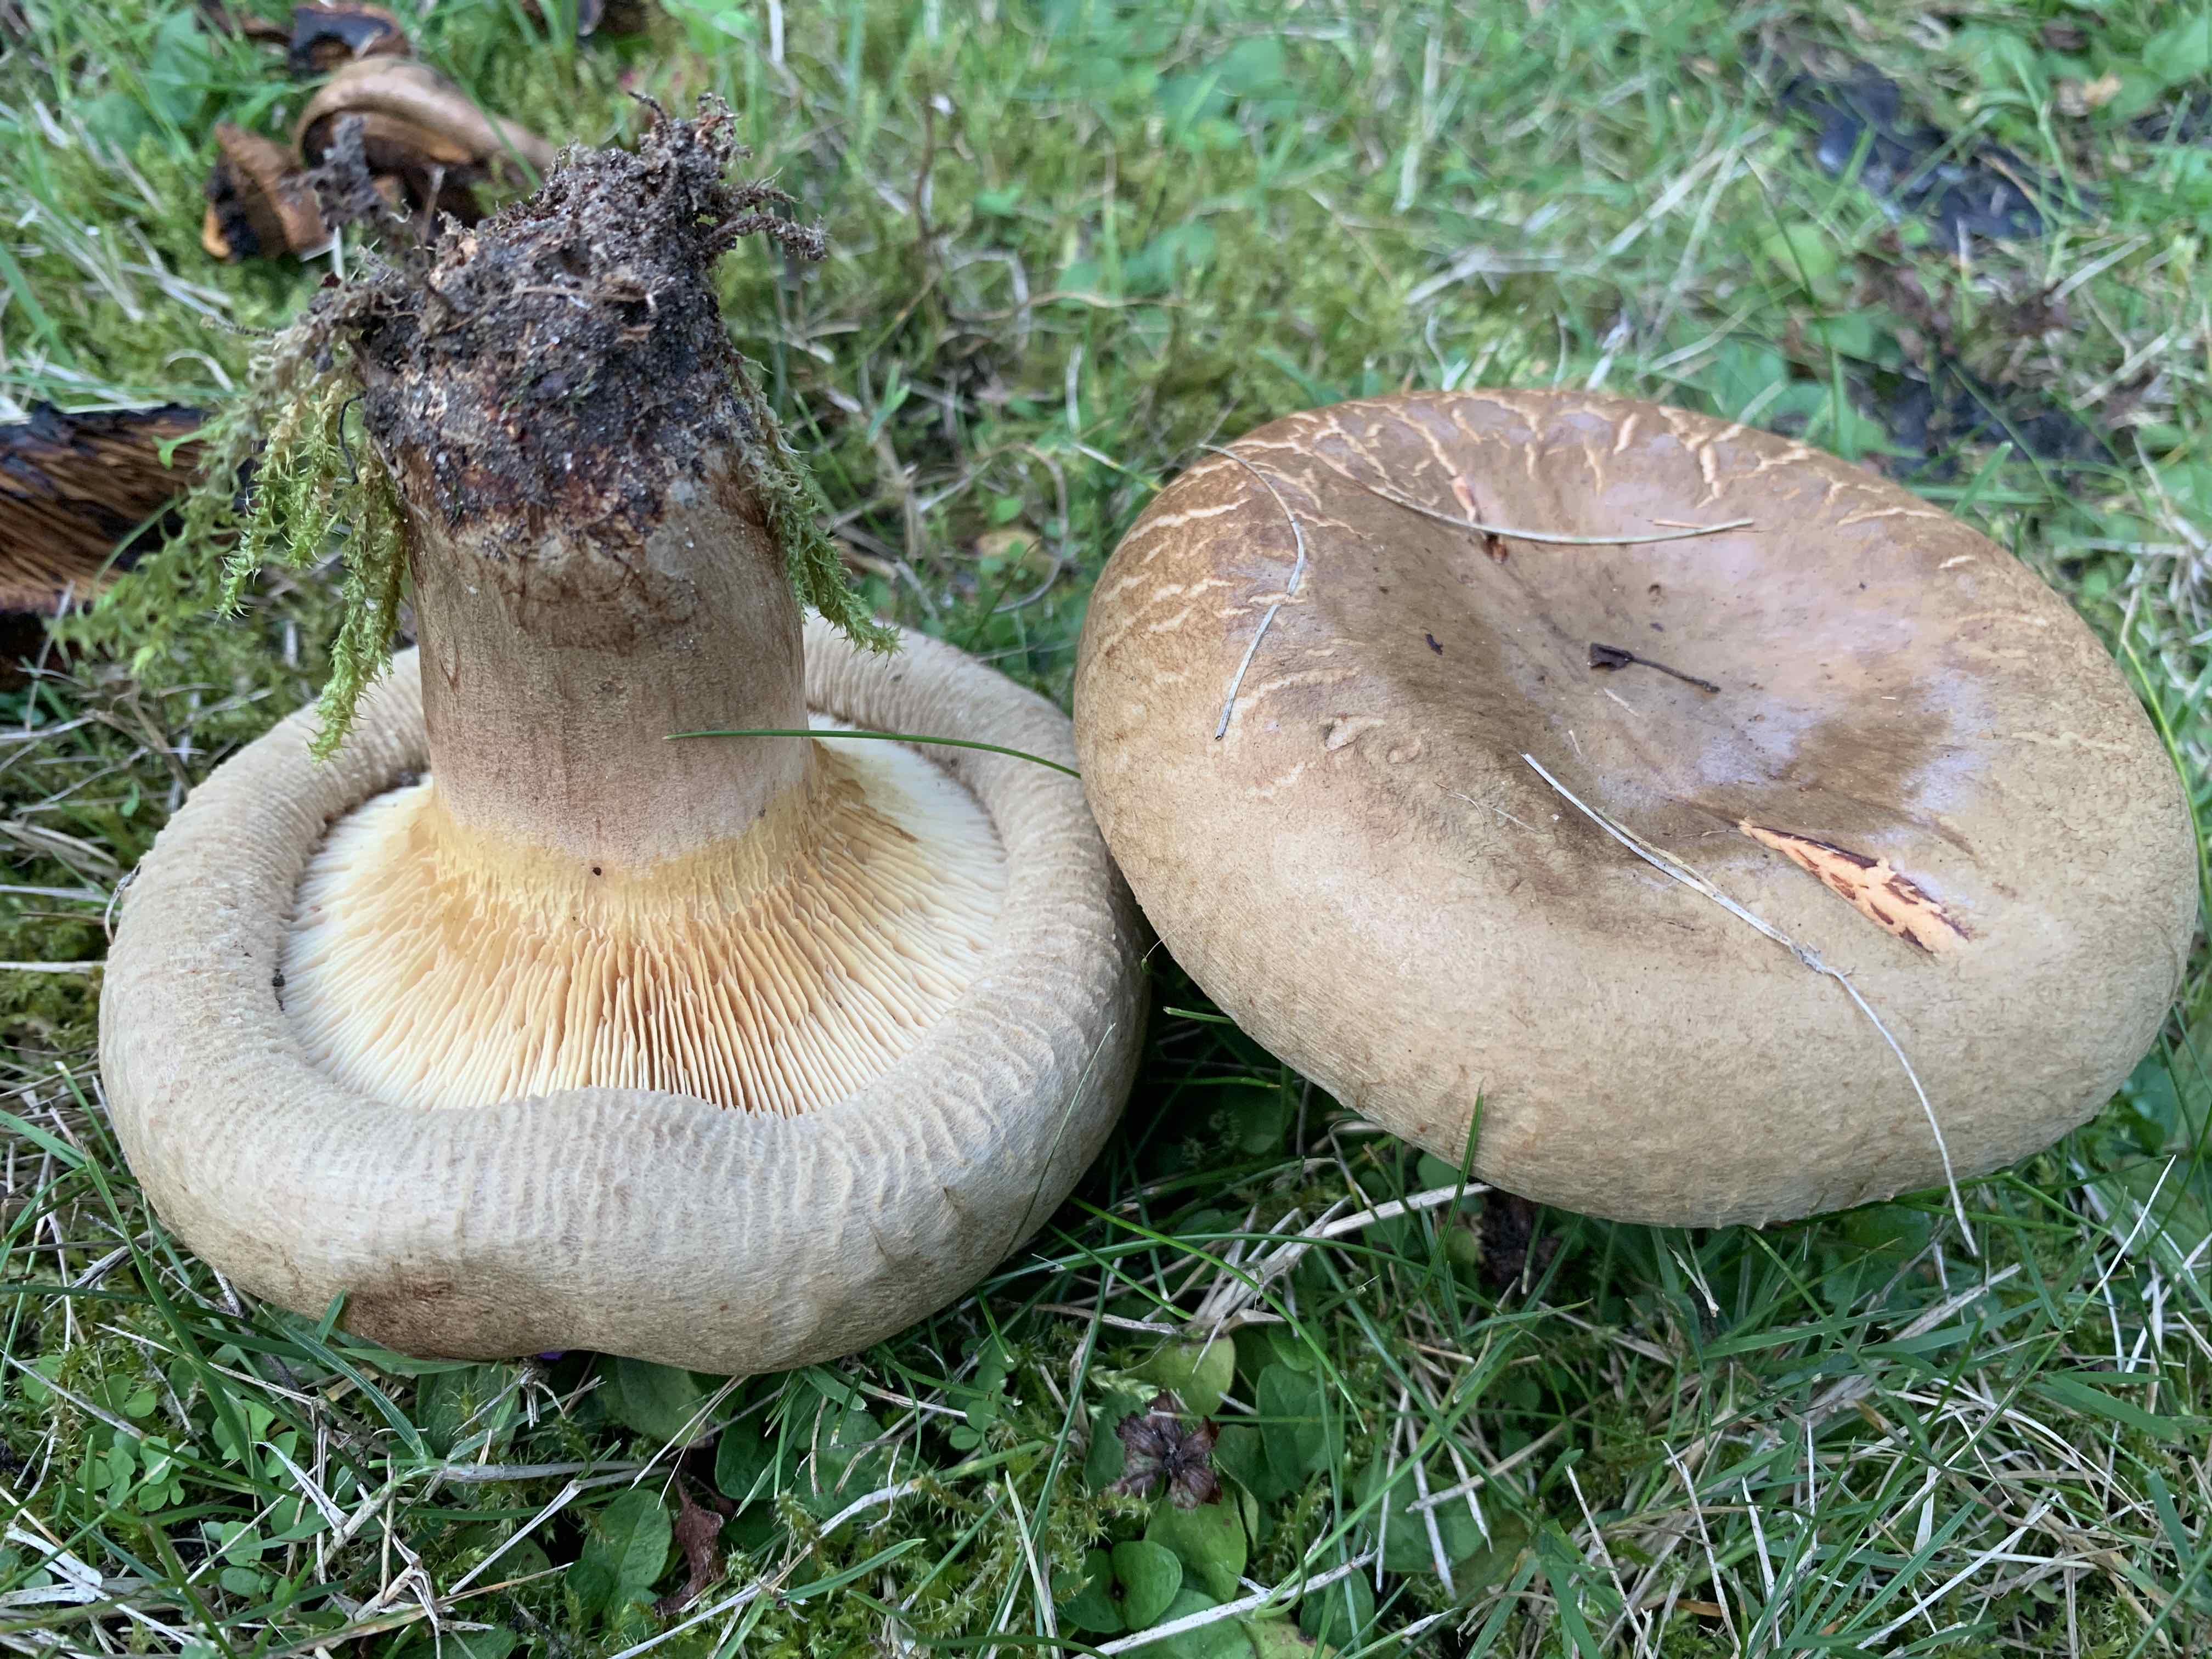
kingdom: Fungi
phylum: Basidiomycota
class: Agaricomycetes
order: Boletales
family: Paxillaceae
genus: Paxillus
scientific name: Paxillus obscurisporus
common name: mahognisporet netbladhat
